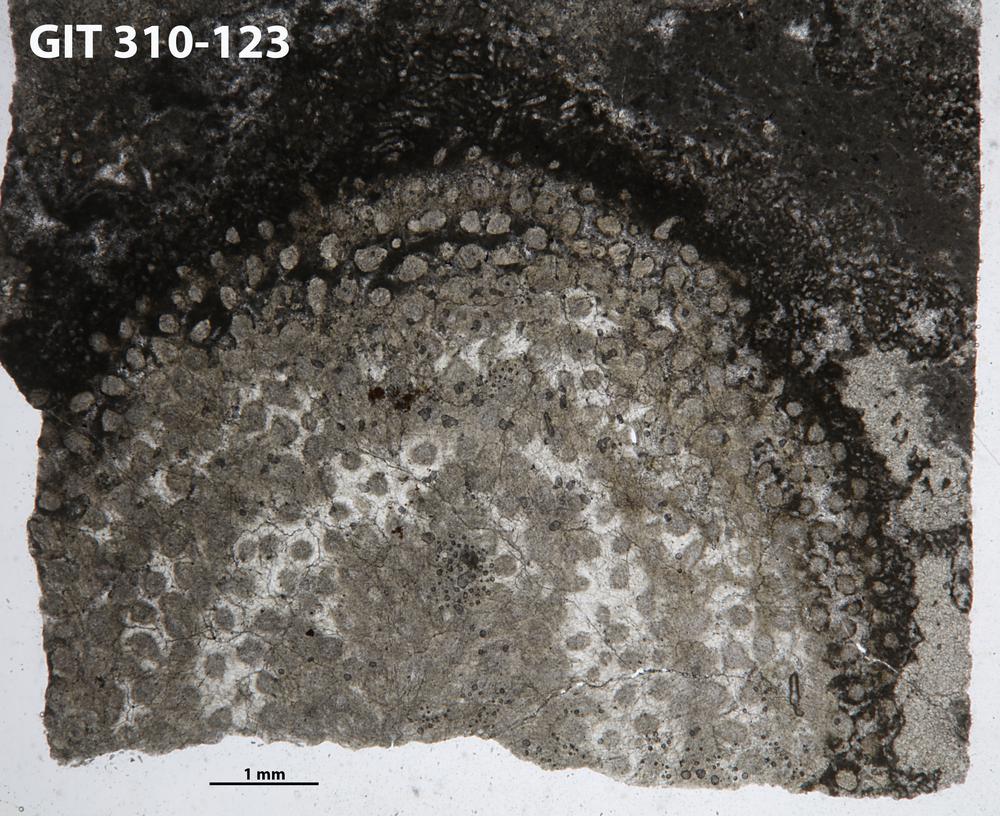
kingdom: Animalia
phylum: Porifera
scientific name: Porifera
